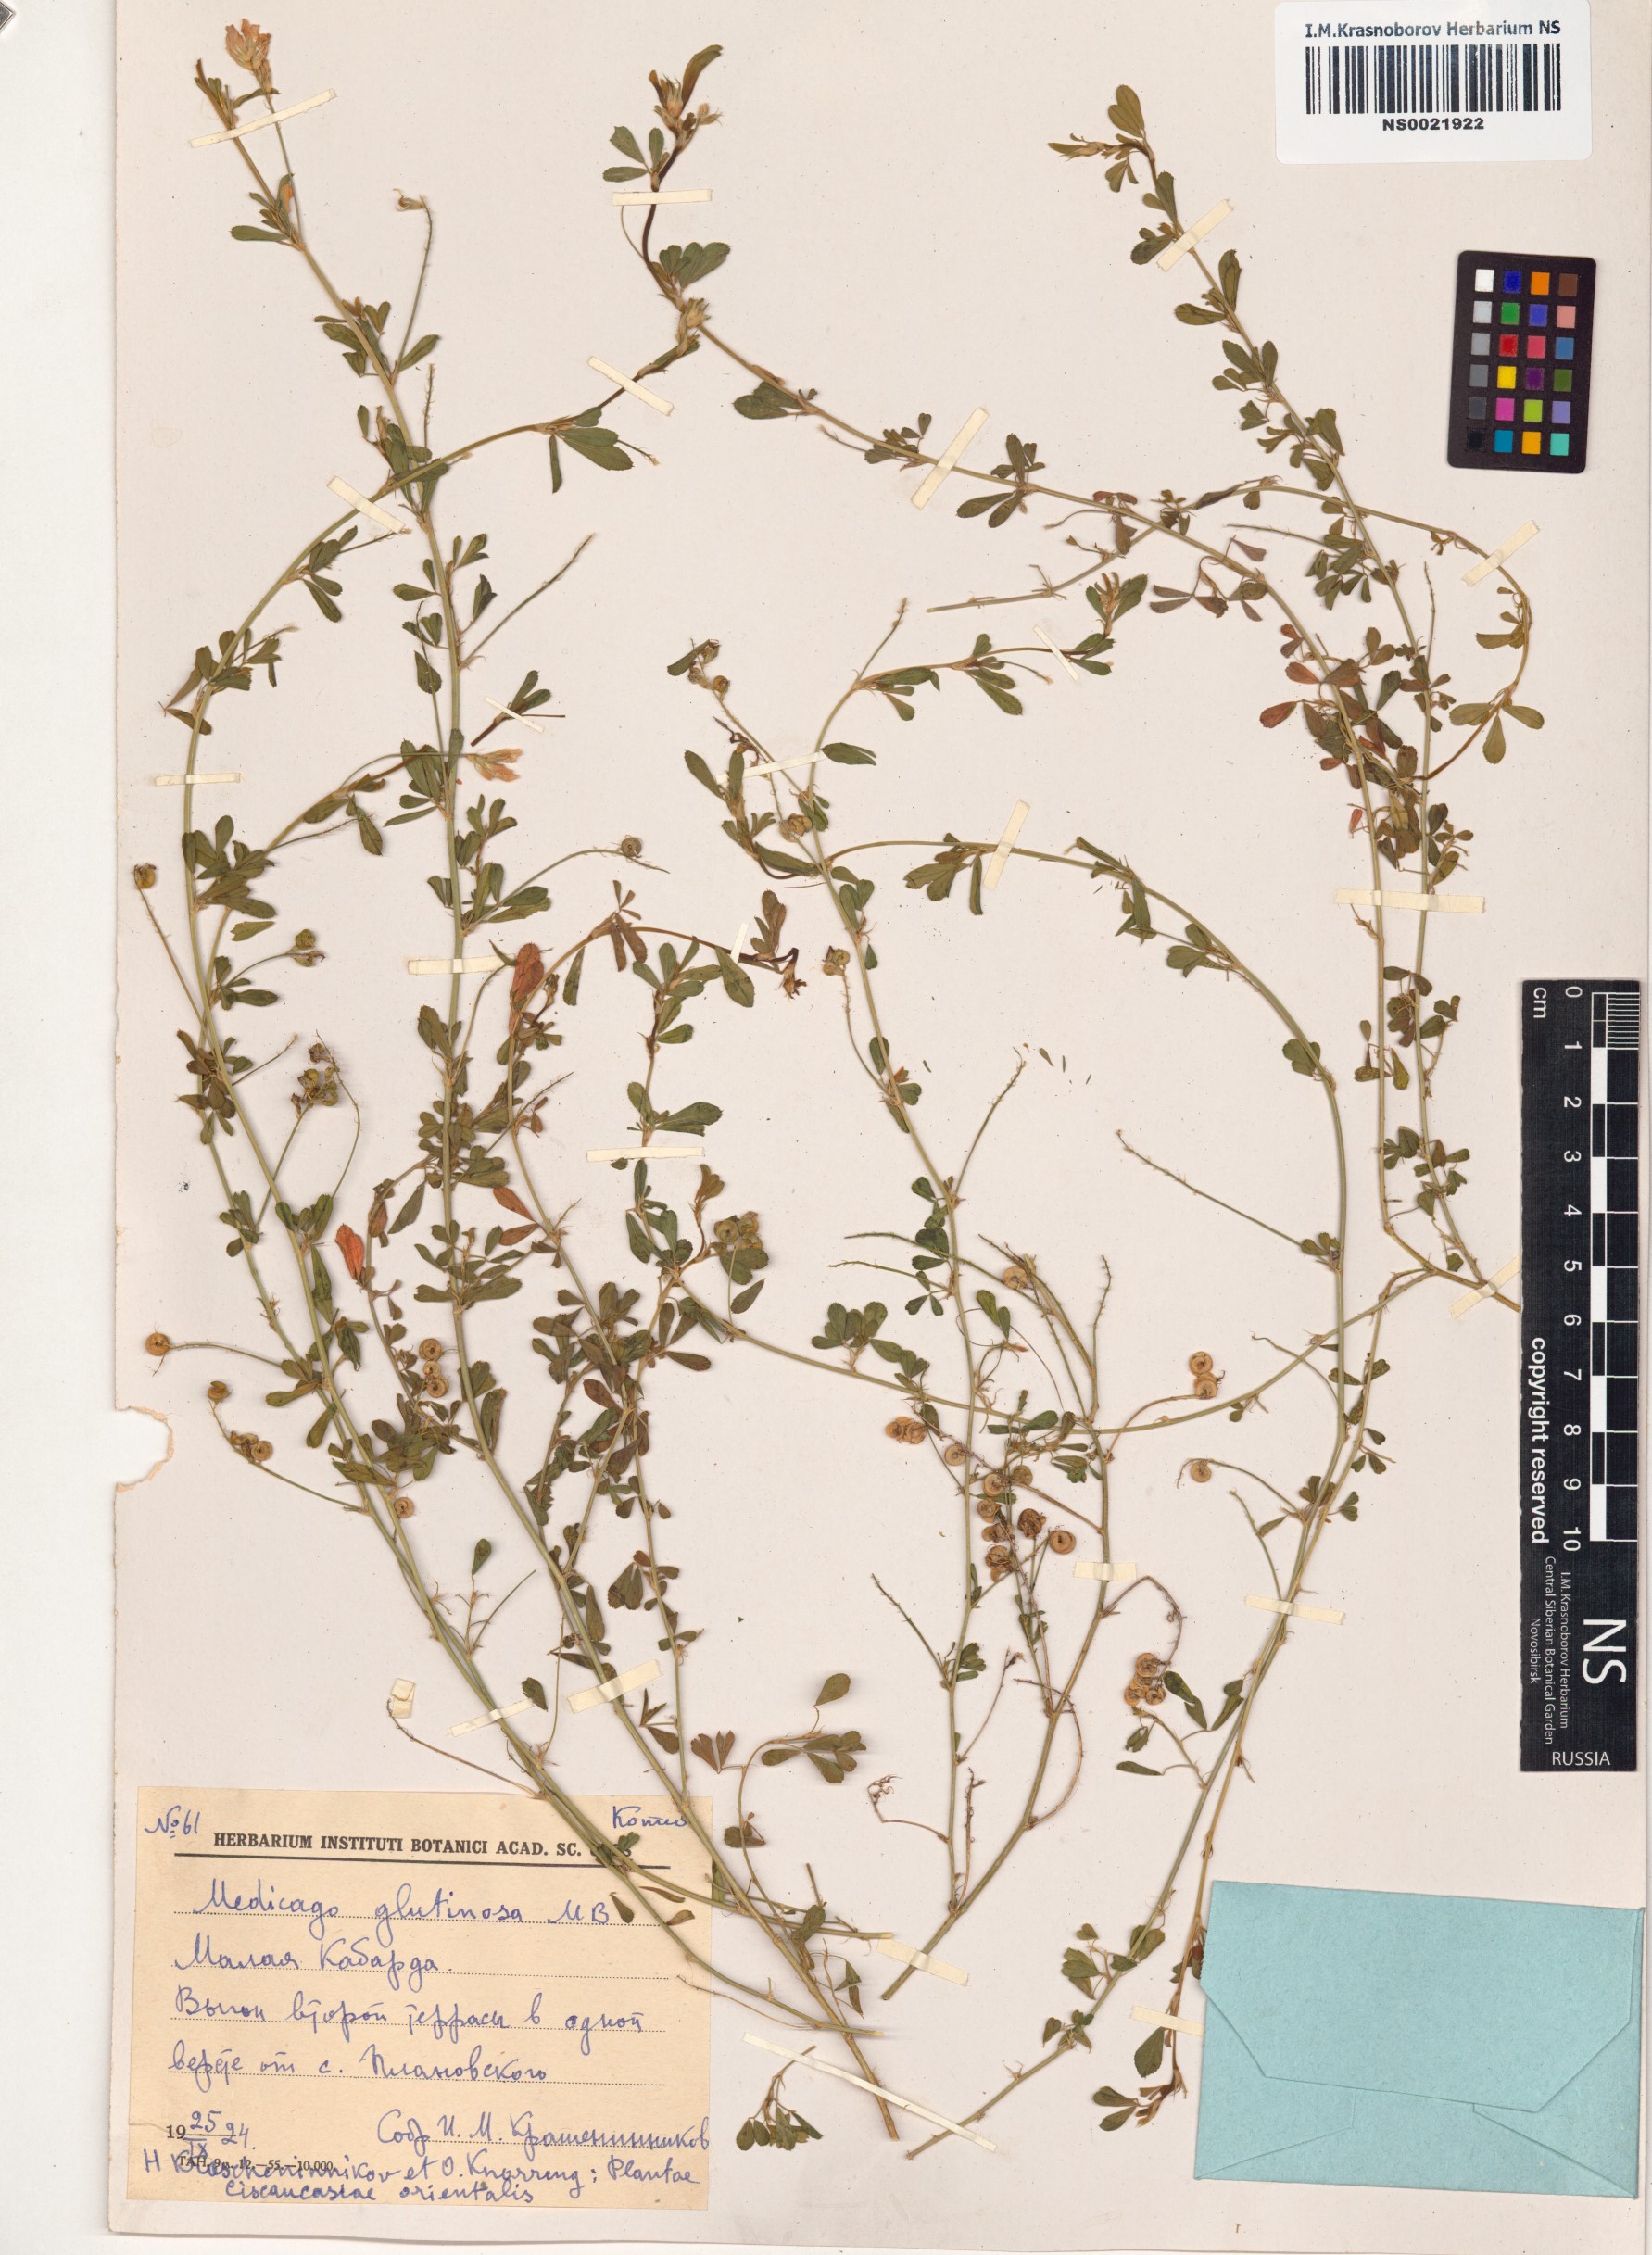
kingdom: Plantae
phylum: Tracheophyta
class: Magnoliopsida
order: Fabales
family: Fabaceae
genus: Medicago
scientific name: Medicago sativa
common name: Alfalfa
